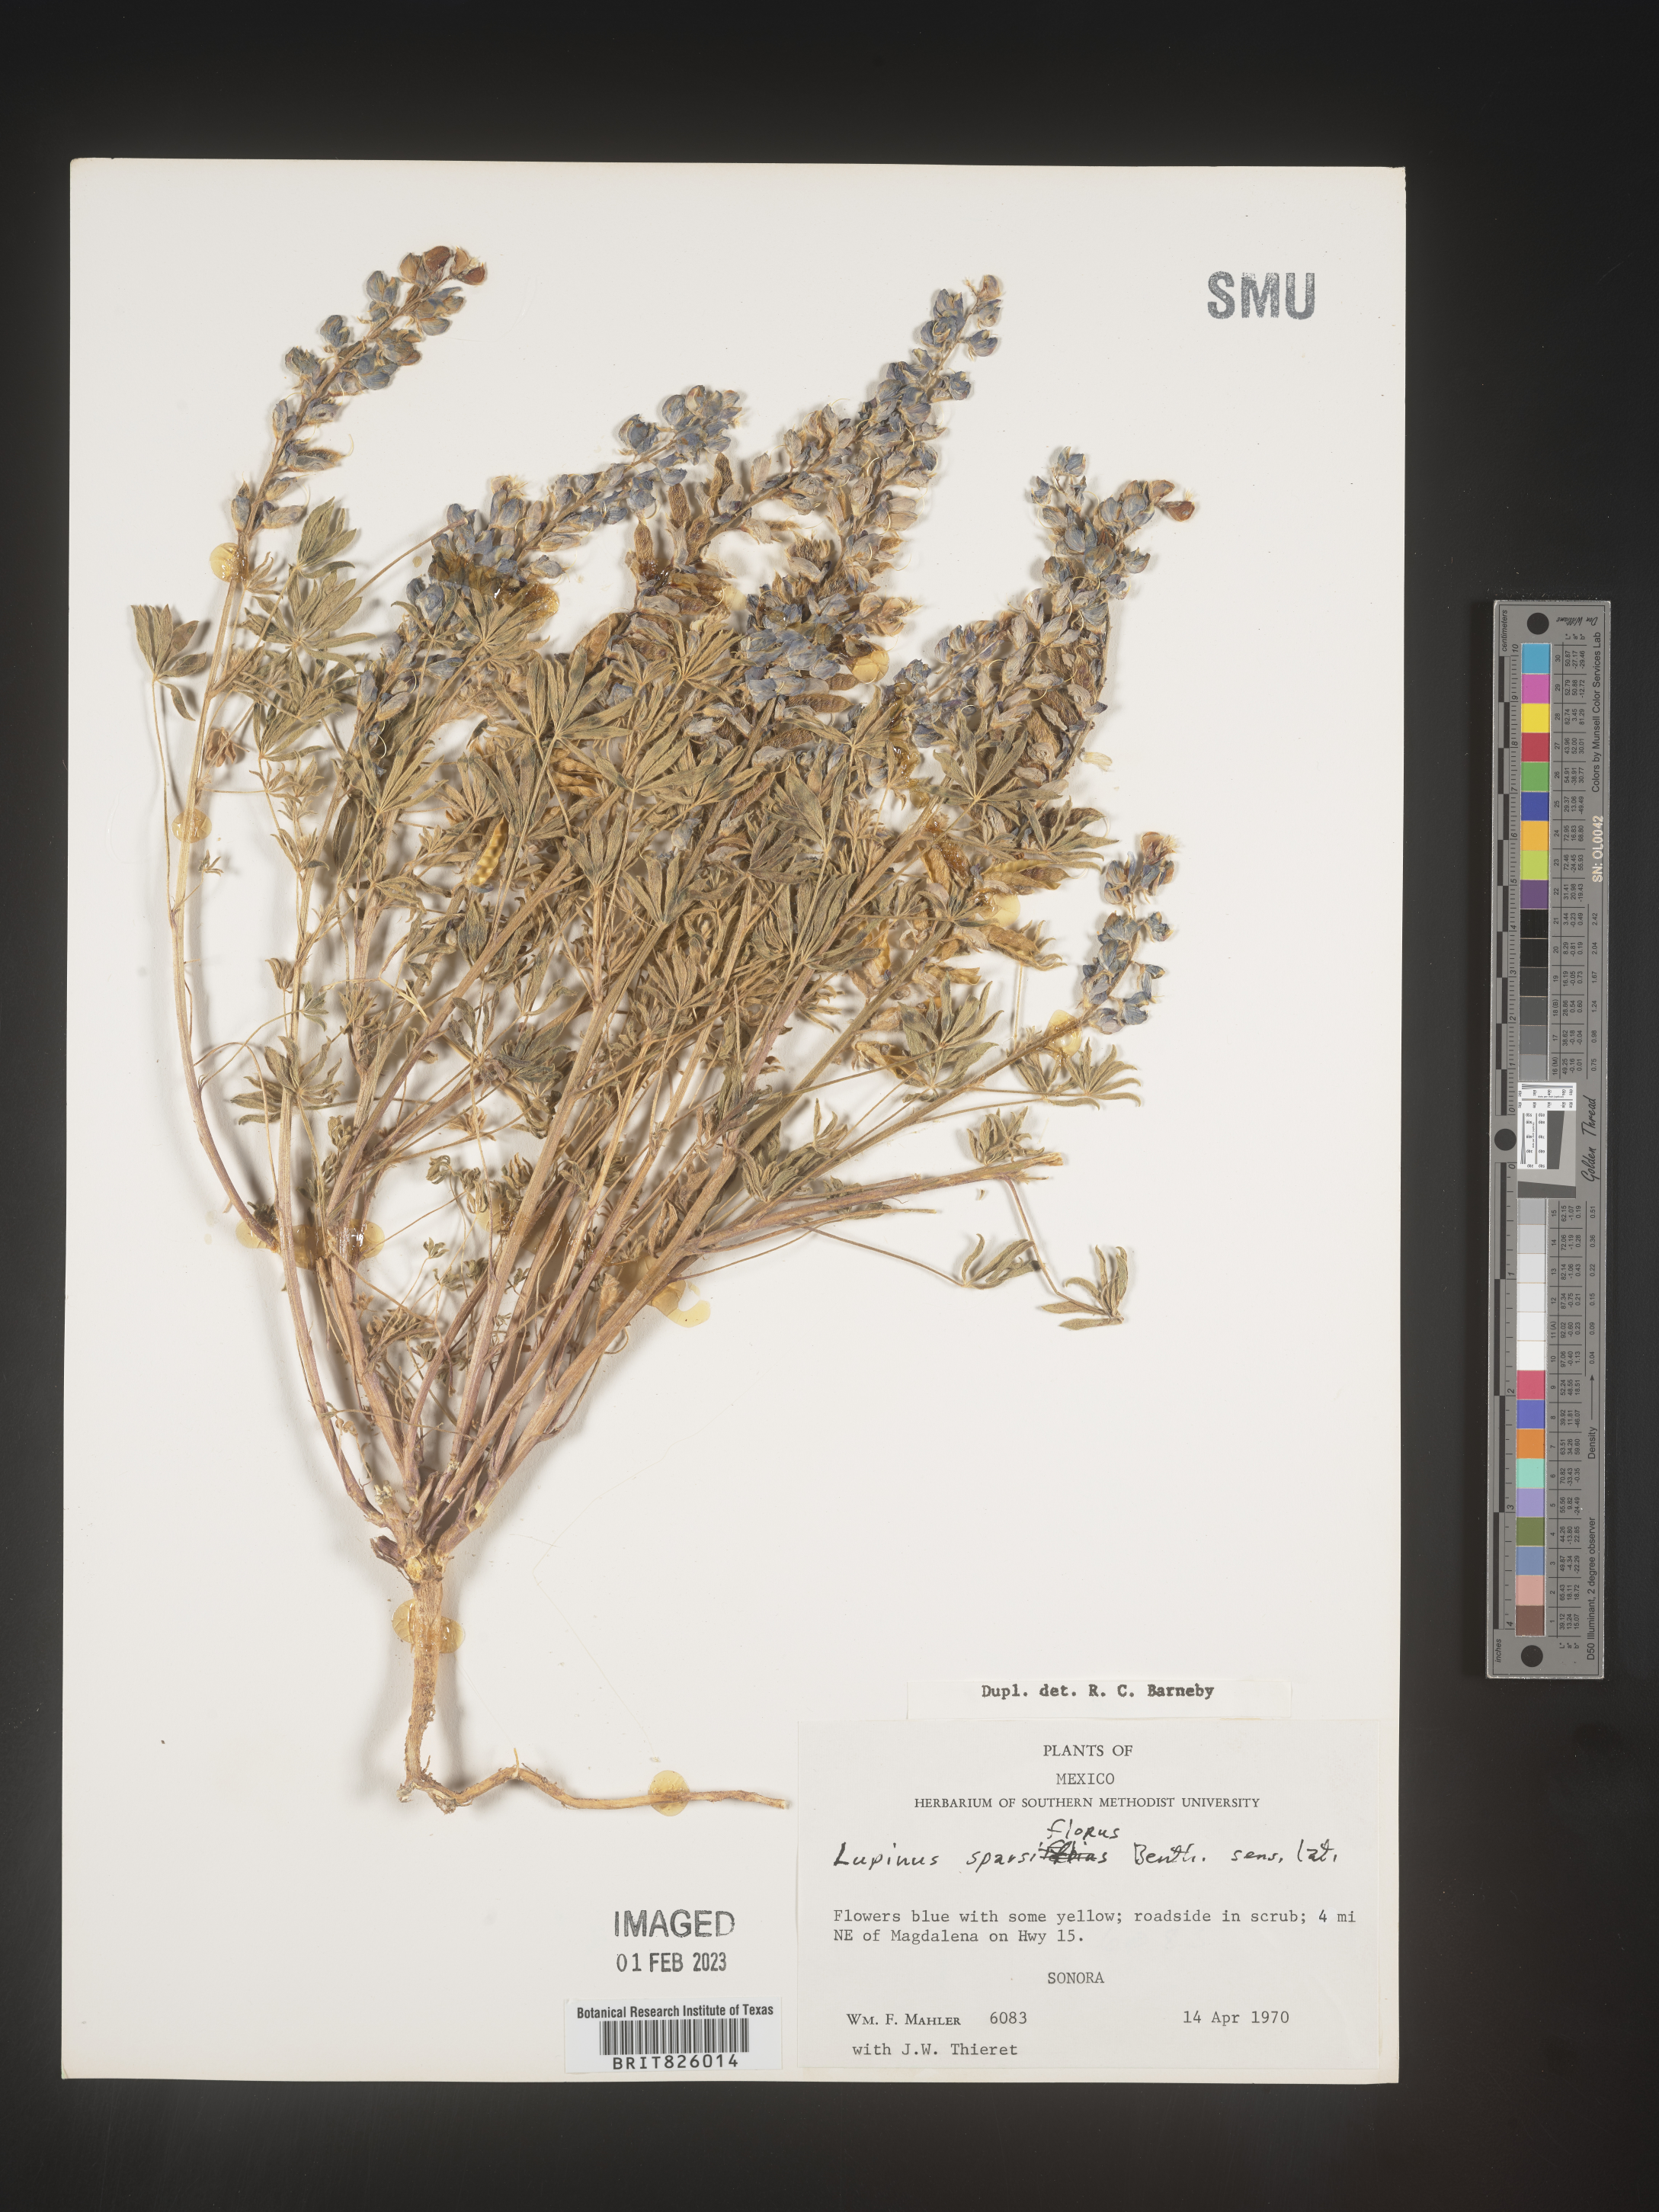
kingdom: Plantae
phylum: Tracheophyta
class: Magnoliopsida
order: Fabales
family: Fabaceae
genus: Lupinus
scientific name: Lupinus
